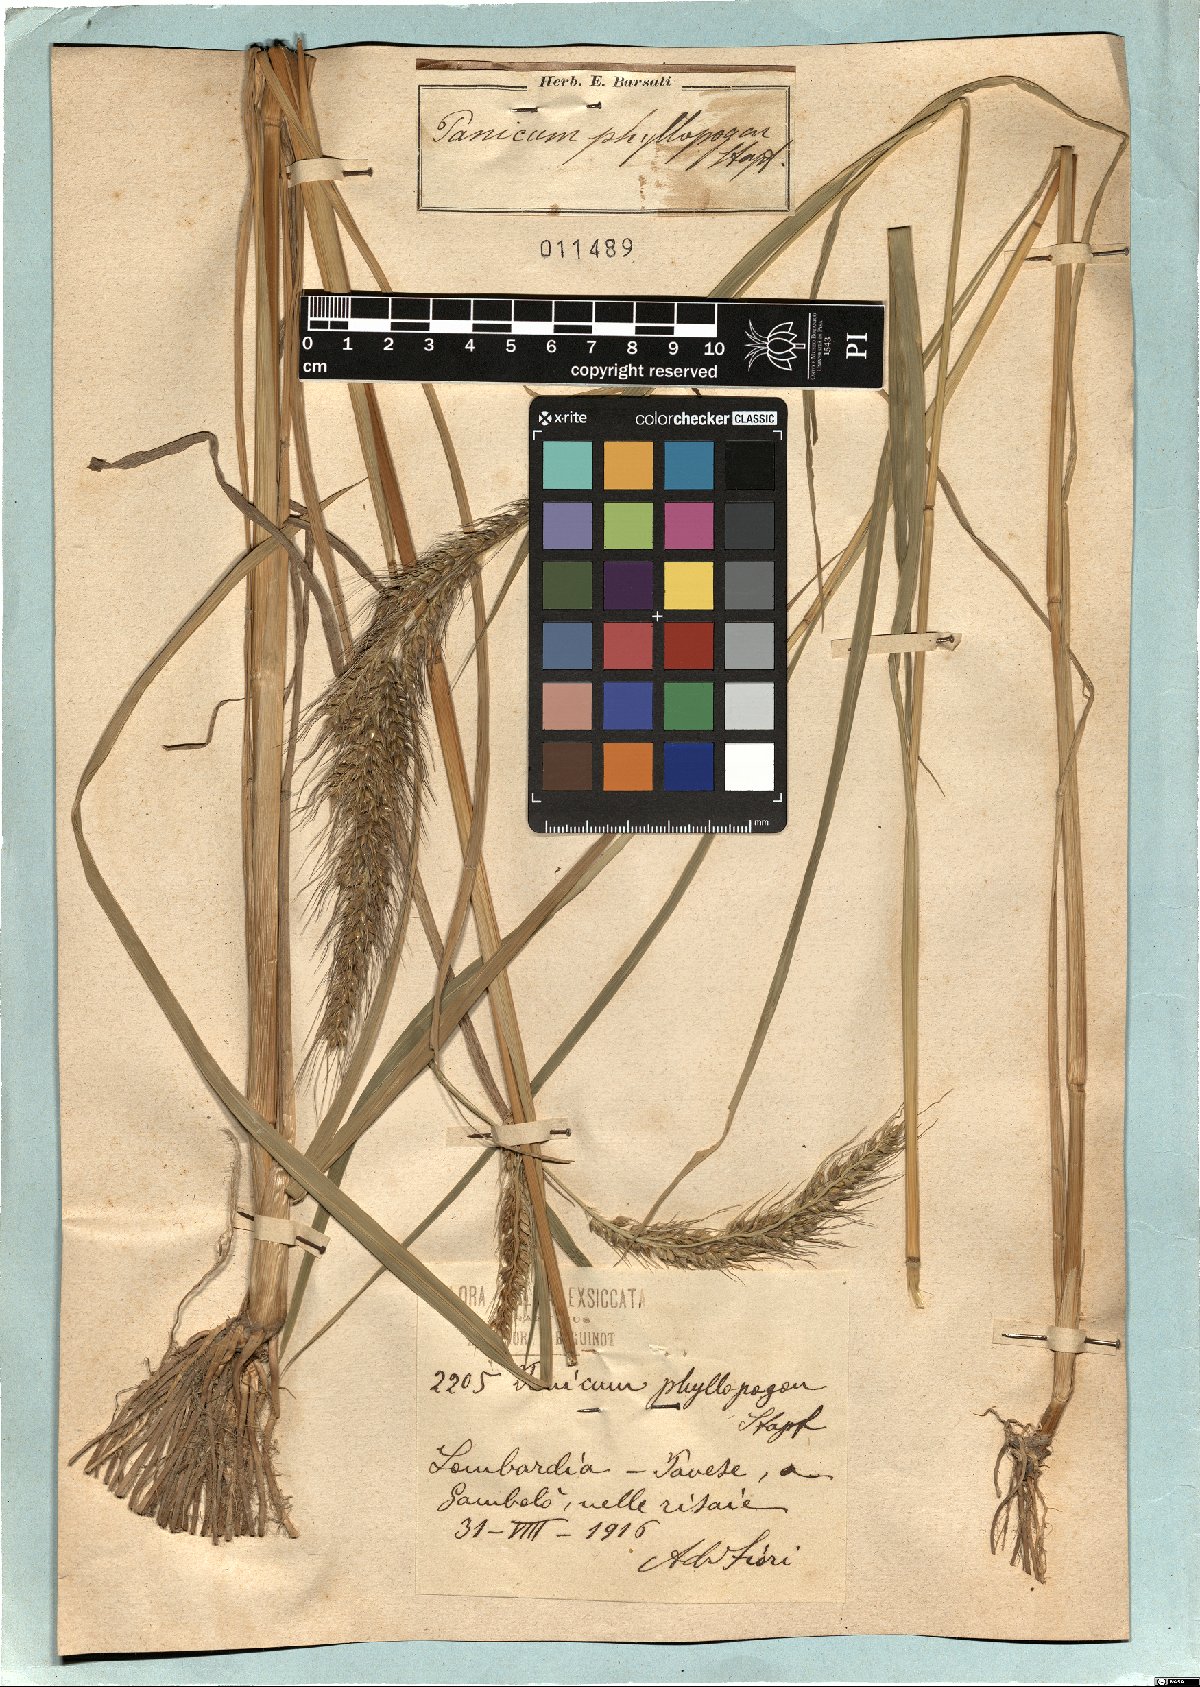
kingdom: Plantae
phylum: Tracheophyta
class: Liliopsida
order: Poales
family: Poaceae
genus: Echinochloa
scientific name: Echinochloa oryzoides
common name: Early water grass
